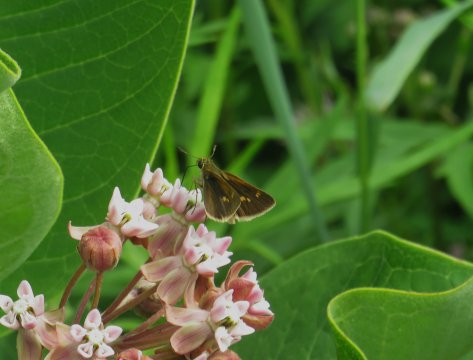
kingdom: Animalia
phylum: Arthropoda
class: Insecta
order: Lepidoptera
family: Hesperiidae
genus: Euphyes
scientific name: Euphyes vestris
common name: Dun Skipper
